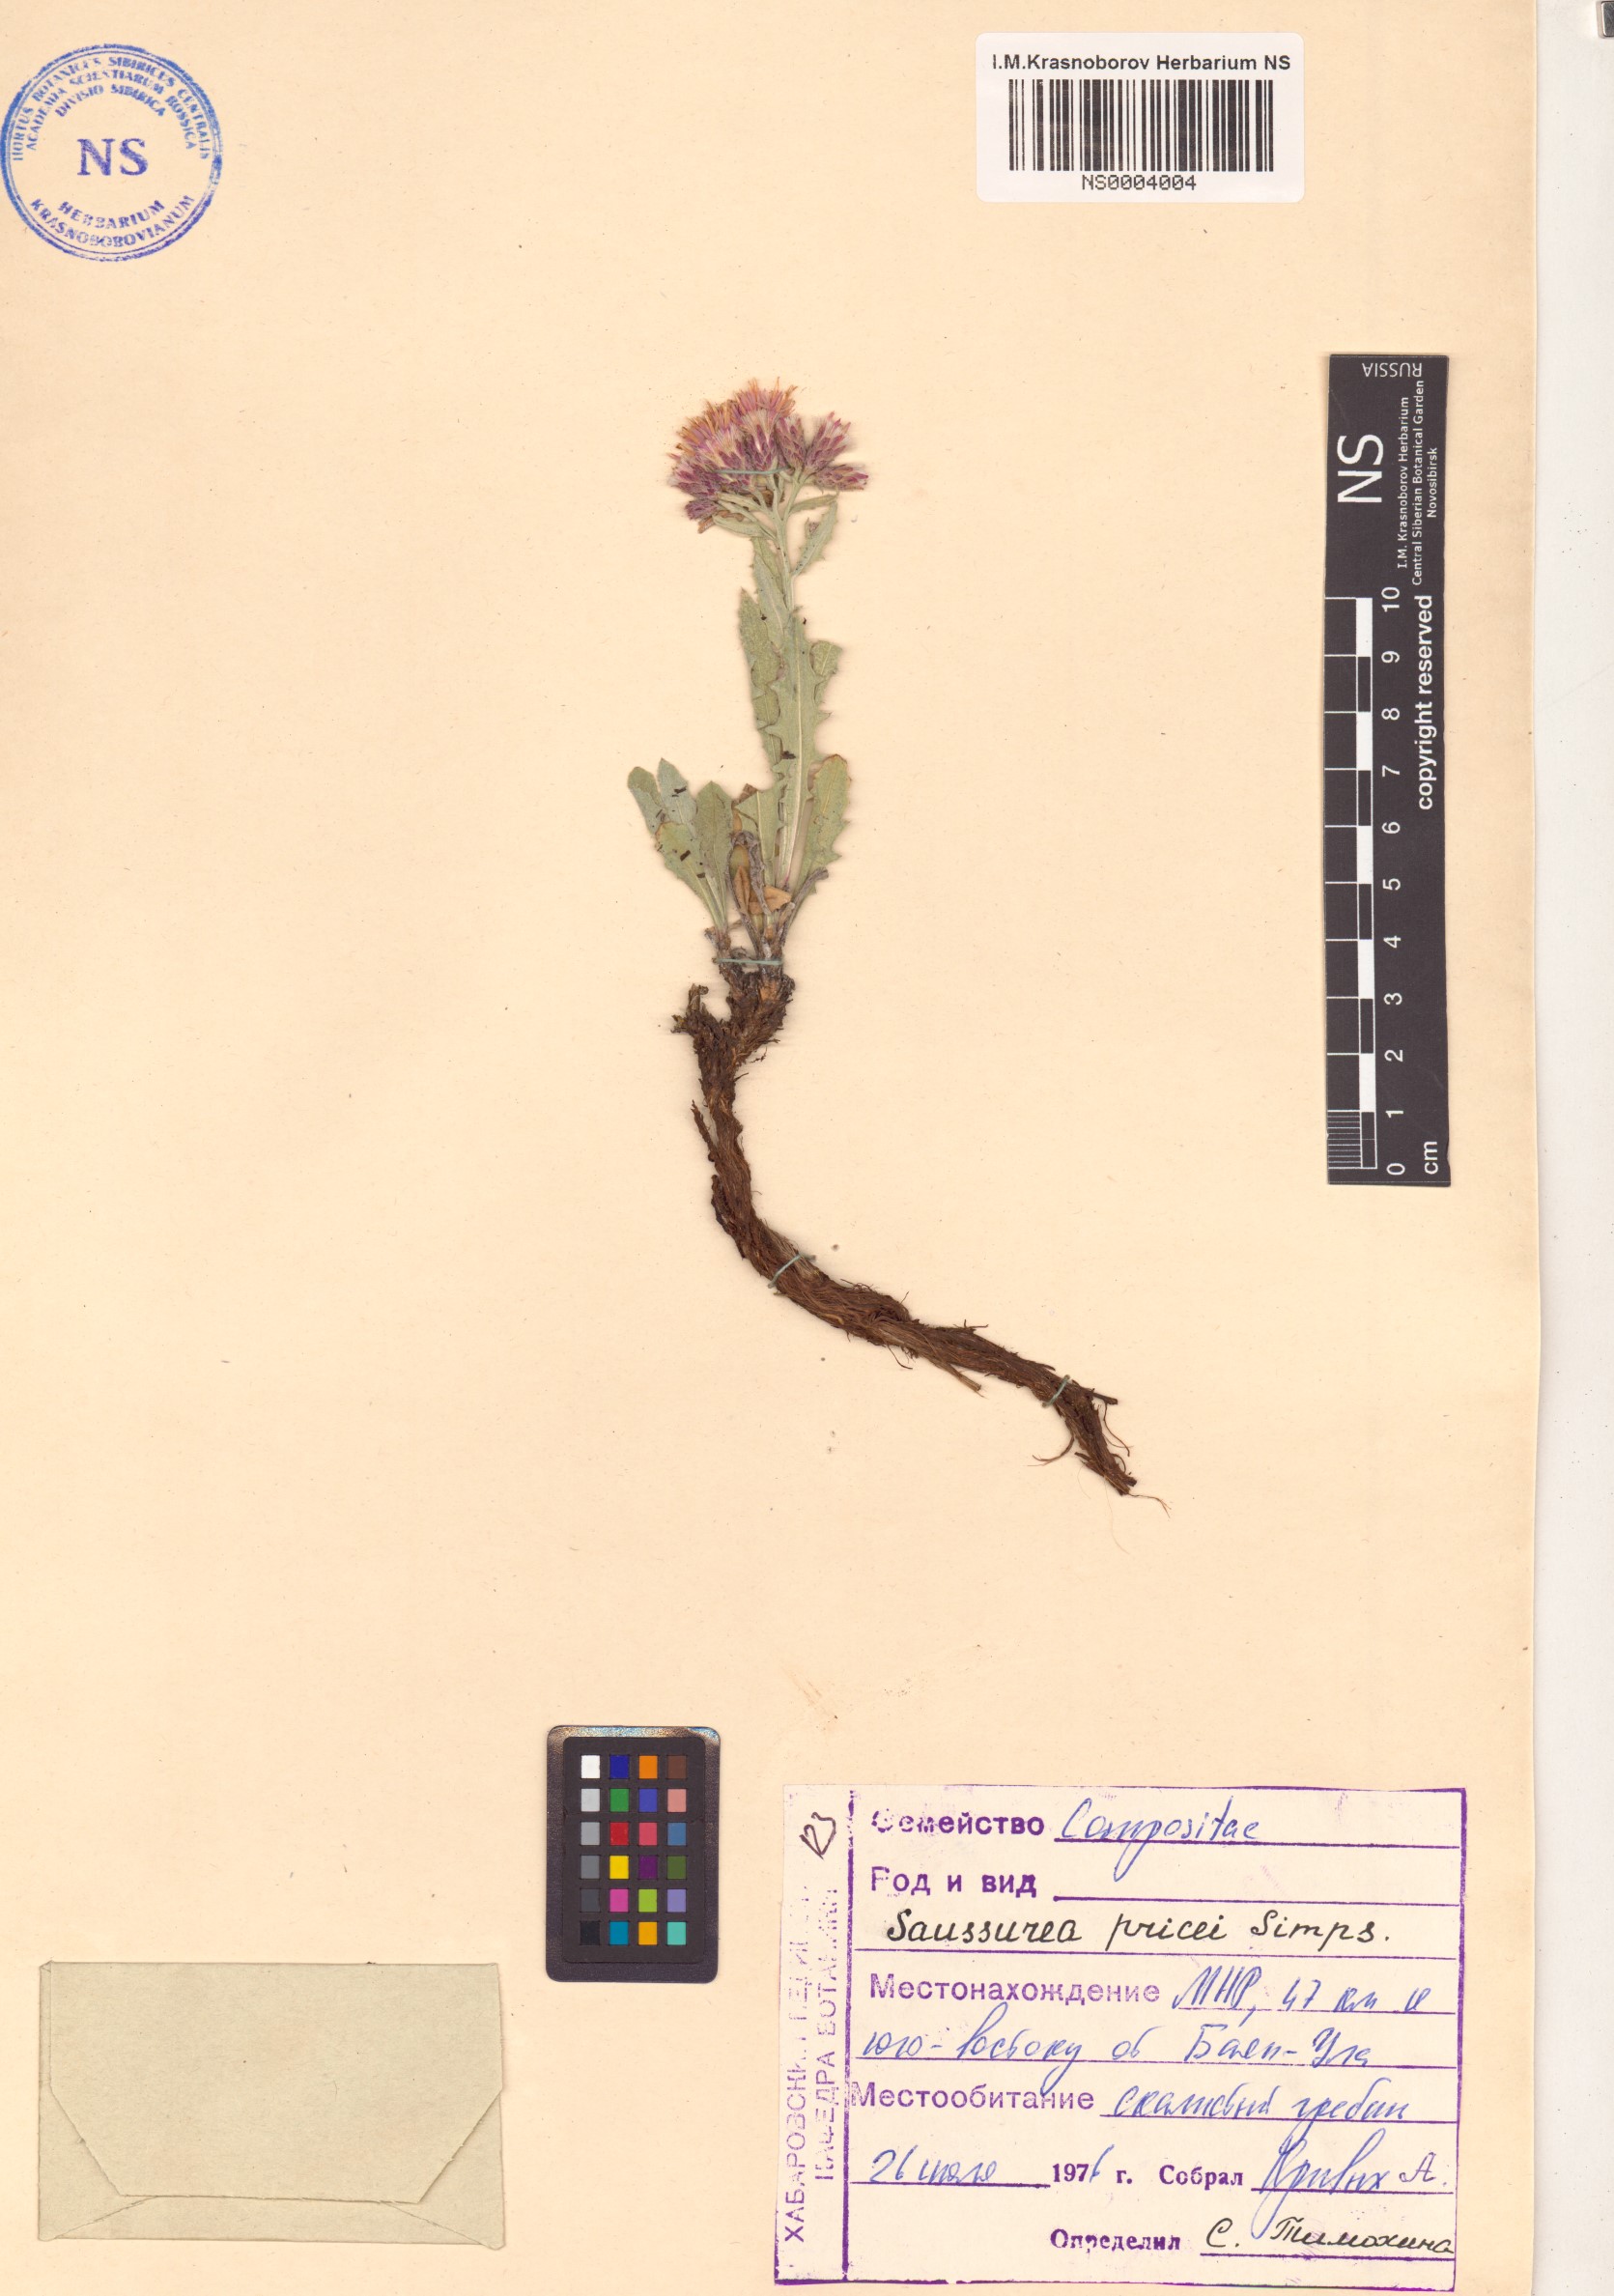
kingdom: Plantae
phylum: Tracheophyta
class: Magnoliopsida
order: Asterales
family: Asteraceae
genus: Saussurea
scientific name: Saussurea pricei
